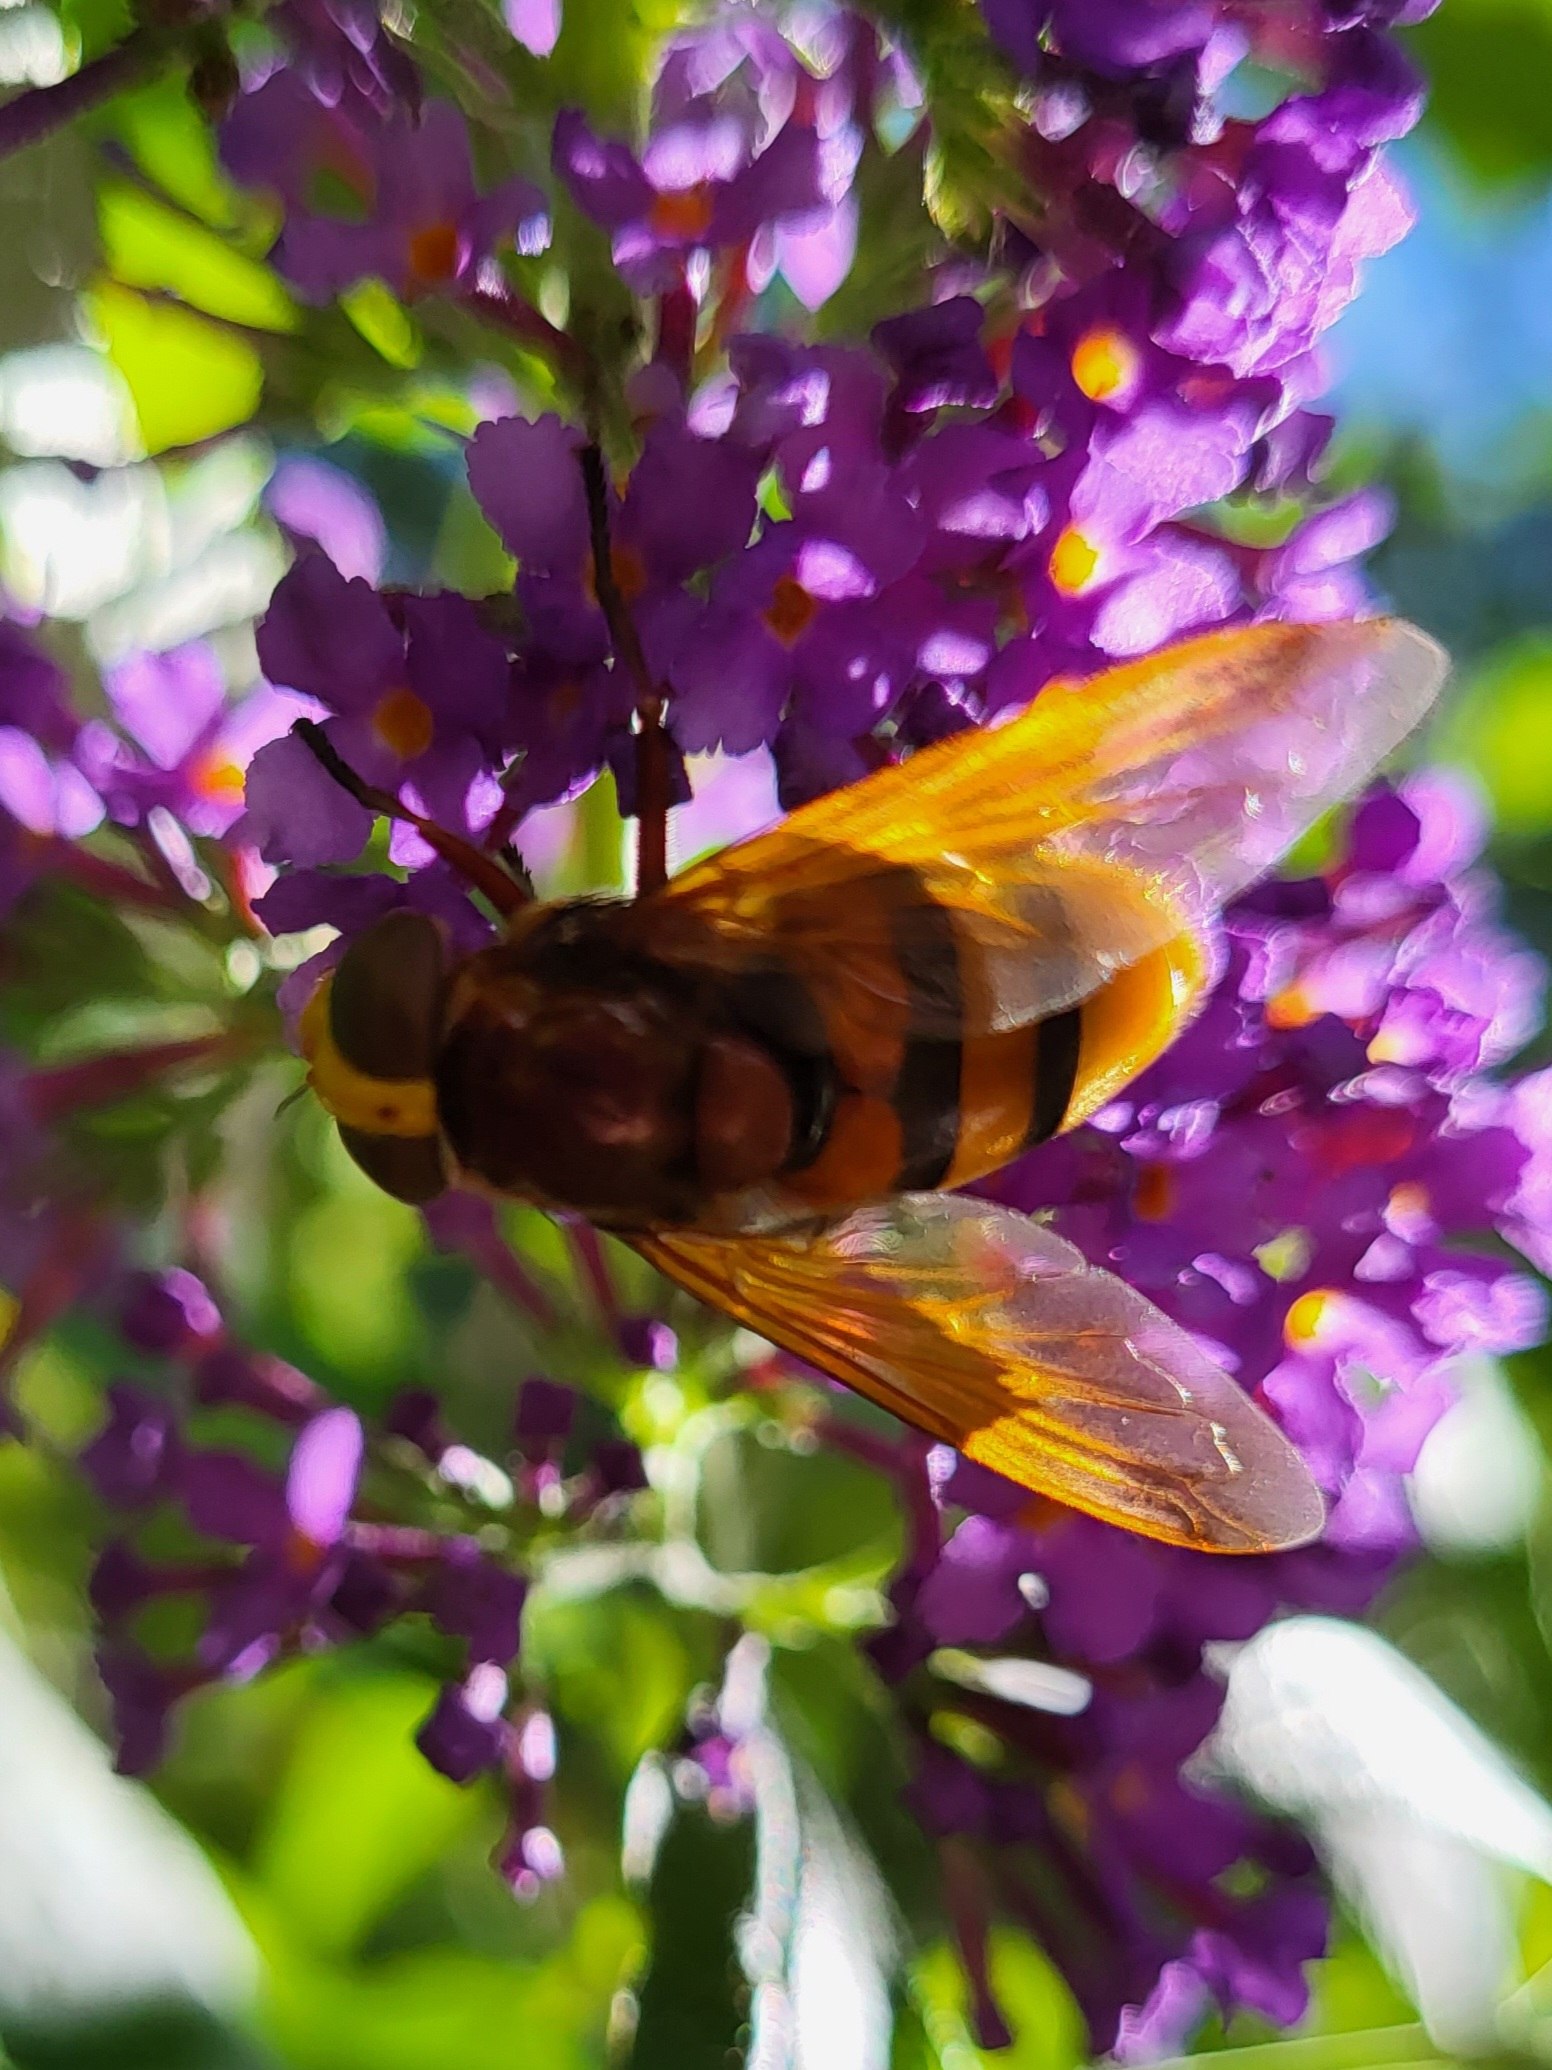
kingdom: Animalia
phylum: Arthropoda
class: Insecta
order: Diptera
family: Syrphidae
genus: Volucella
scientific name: Volucella zonaria
